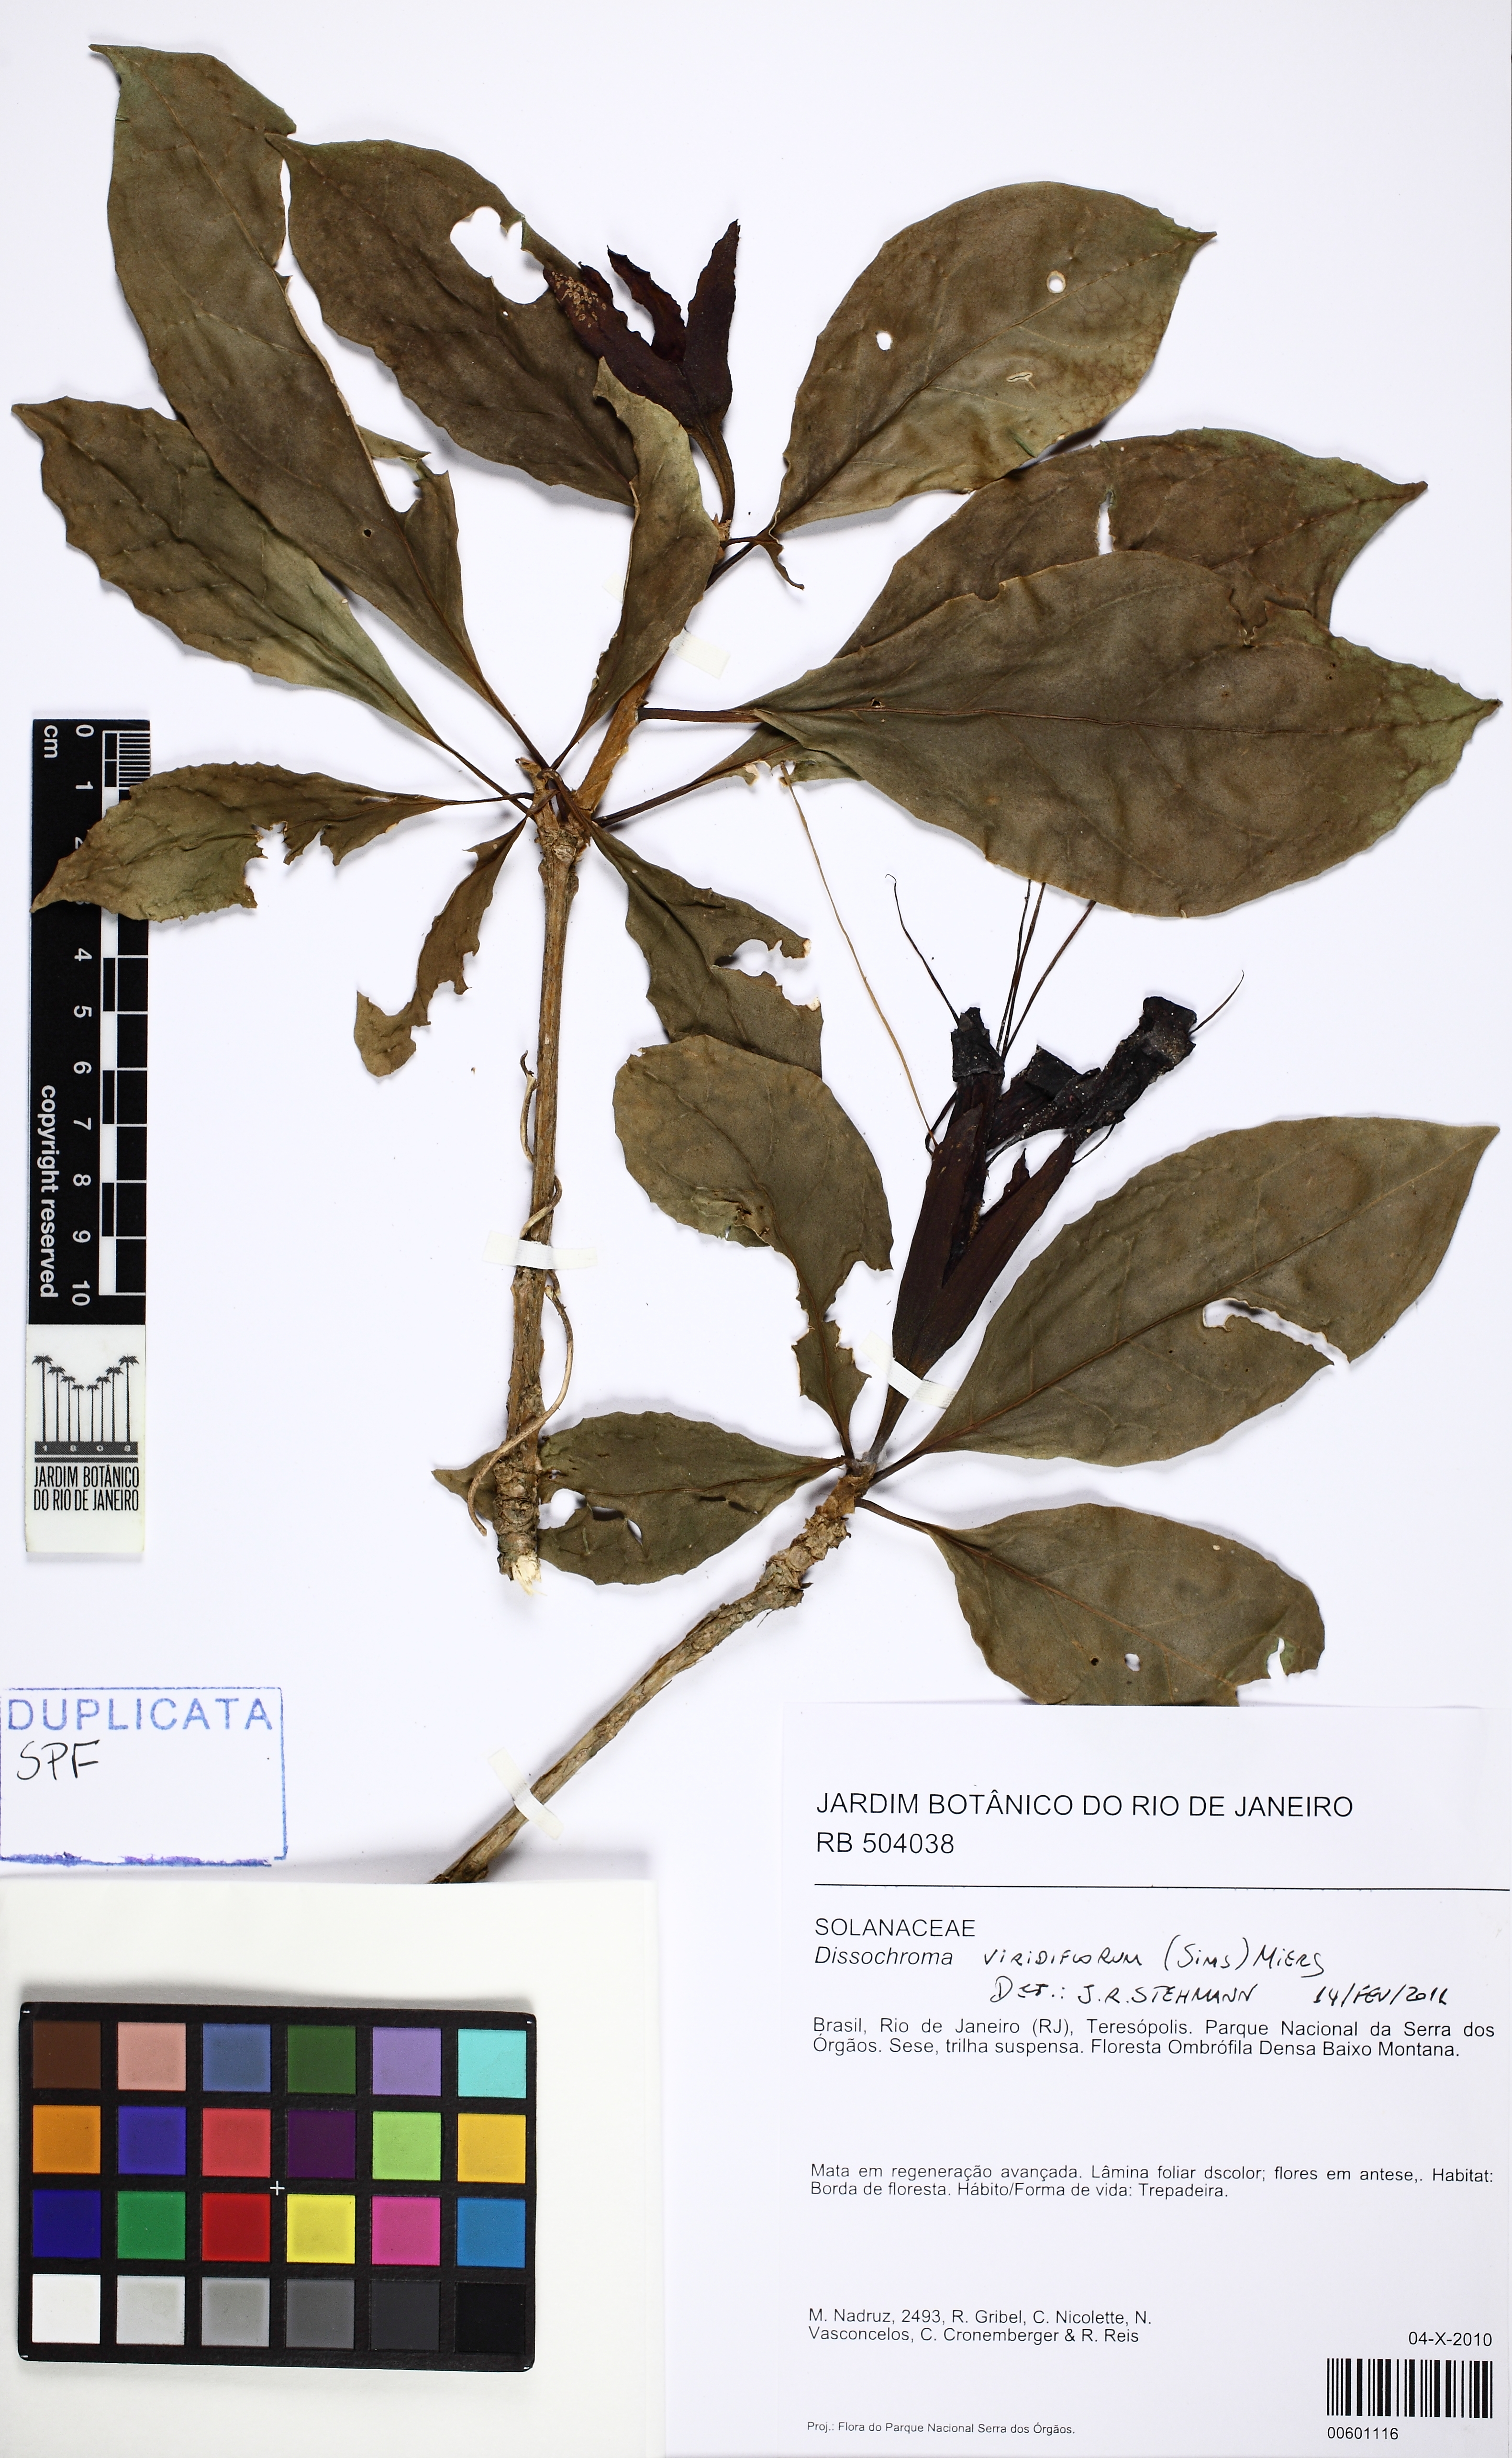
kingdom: Plantae
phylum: Tracheophyta
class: Magnoliopsida
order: Solanales
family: Solanaceae
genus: Dyssochroma
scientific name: Dyssochroma
